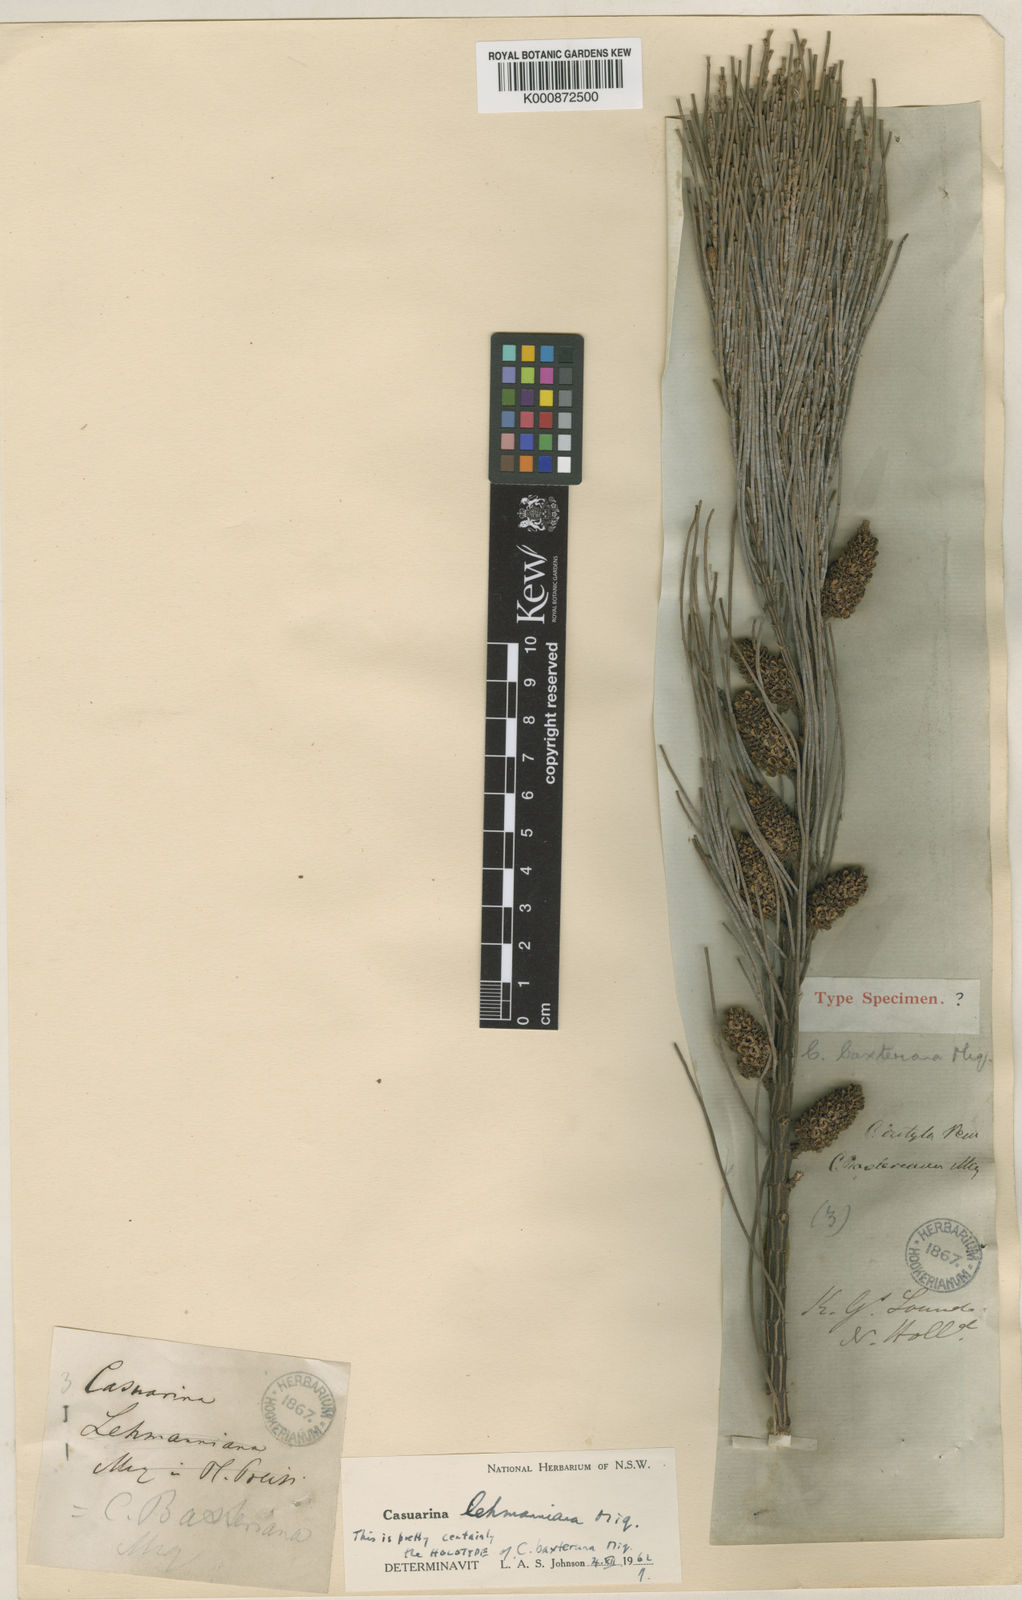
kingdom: Plantae
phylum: Tracheophyta
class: Magnoliopsida
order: Fagales
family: Casuarinaceae
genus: Allocasuarina
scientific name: Allocasuarina lehmanniana
